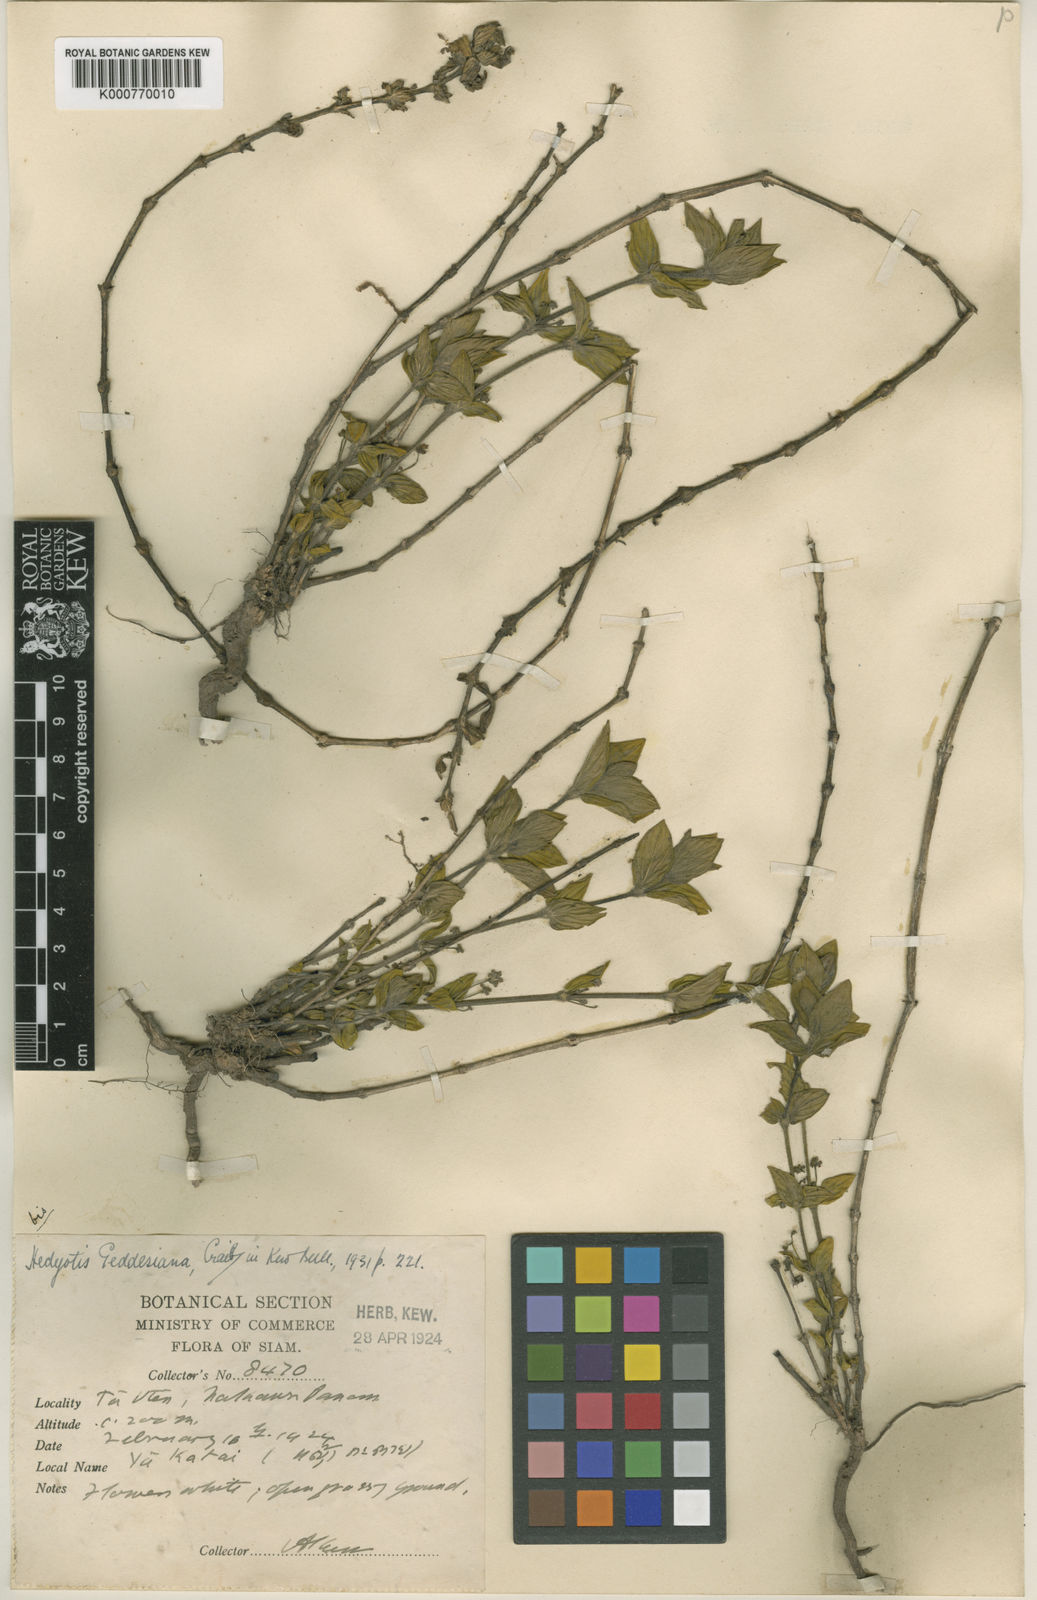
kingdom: Plantae
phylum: Tracheophyta
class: Magnoliopsida
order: Gentianales
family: Rubiaceae
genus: Exallage
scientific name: Exallage
